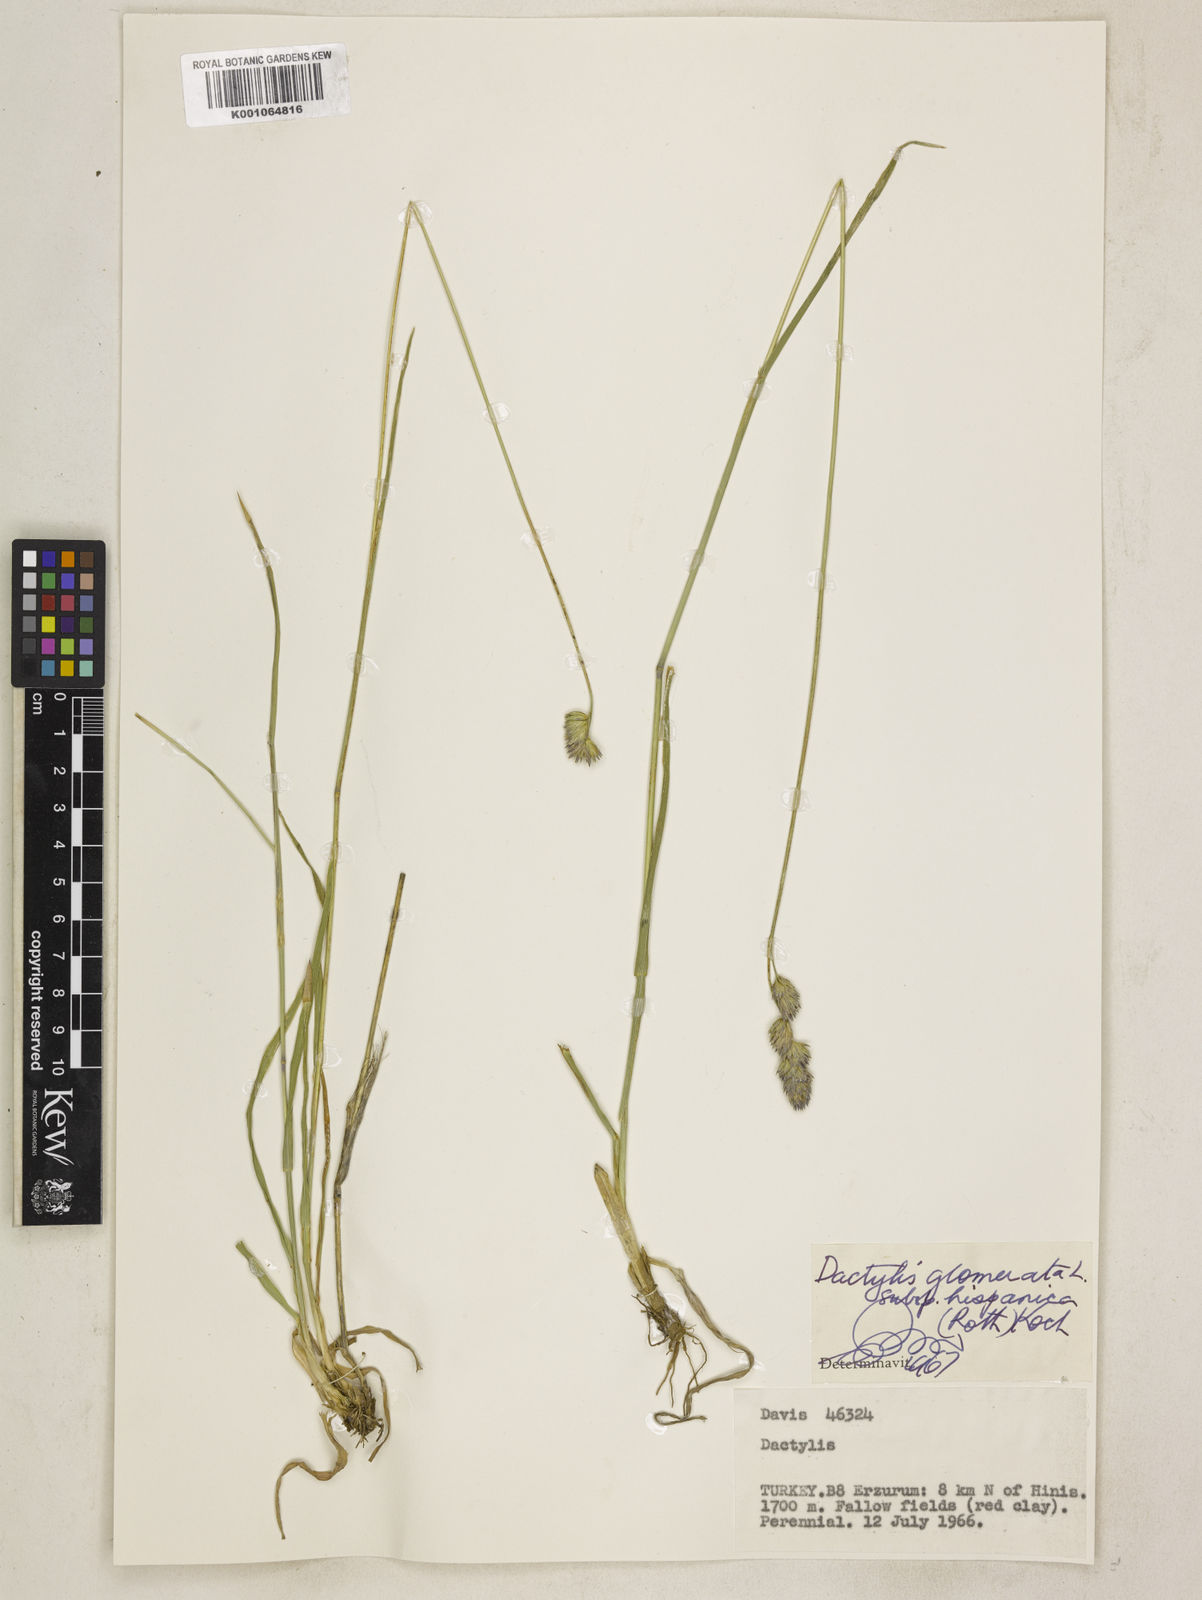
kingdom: Plantae
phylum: Tracheophyta
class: Liliopsida
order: Poales
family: Poaceae
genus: Dactylis
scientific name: Dactylis glomerata
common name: Orchardgrass
